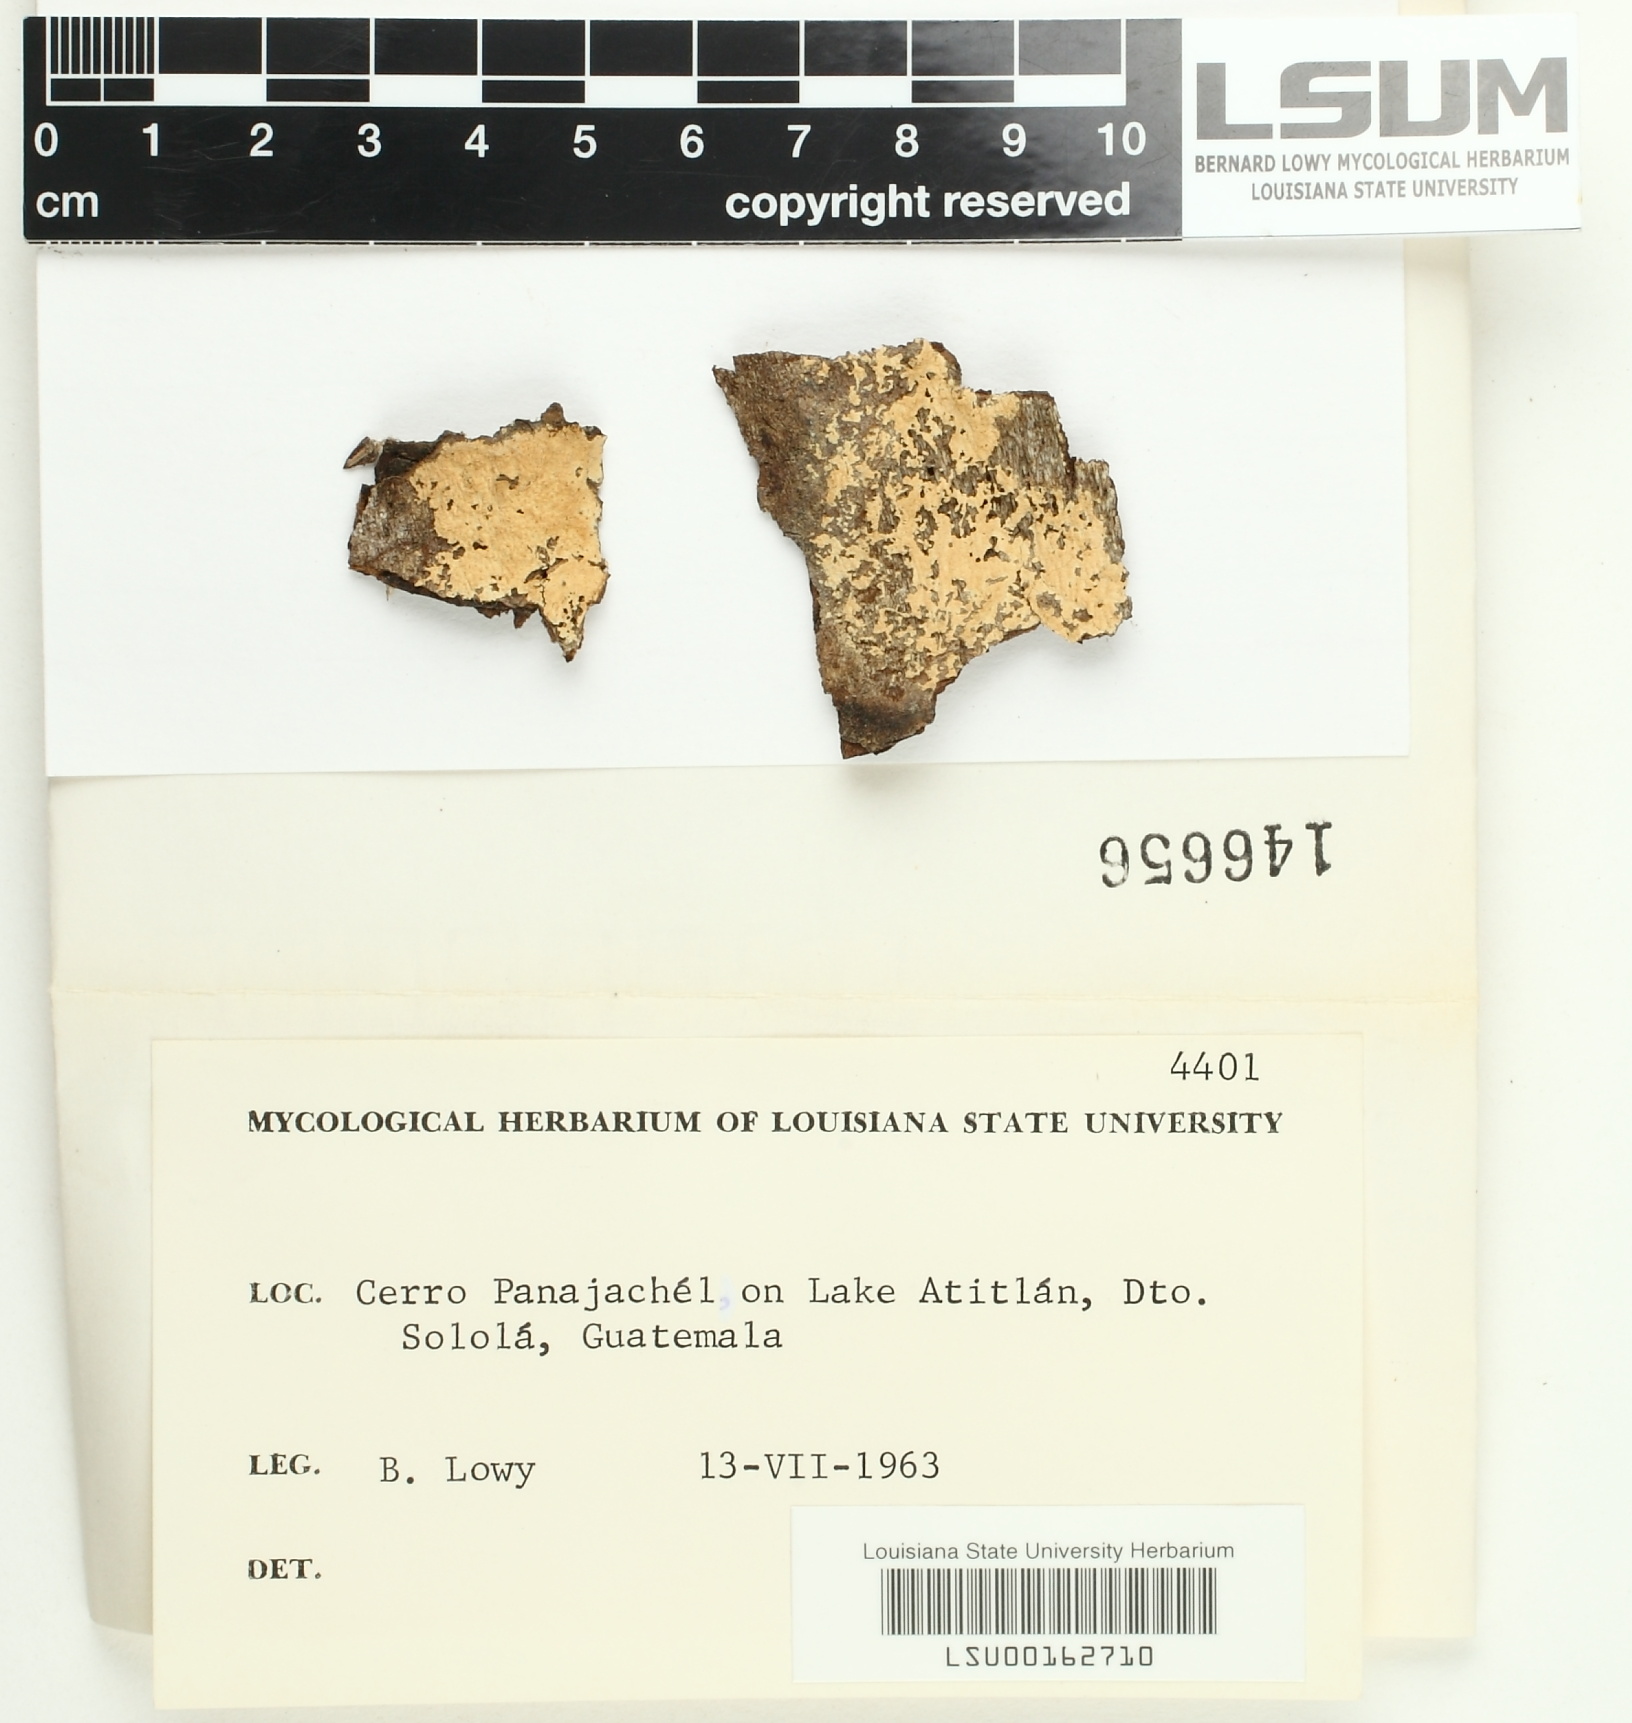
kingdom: Fungi
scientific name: Fungi
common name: Fungi
